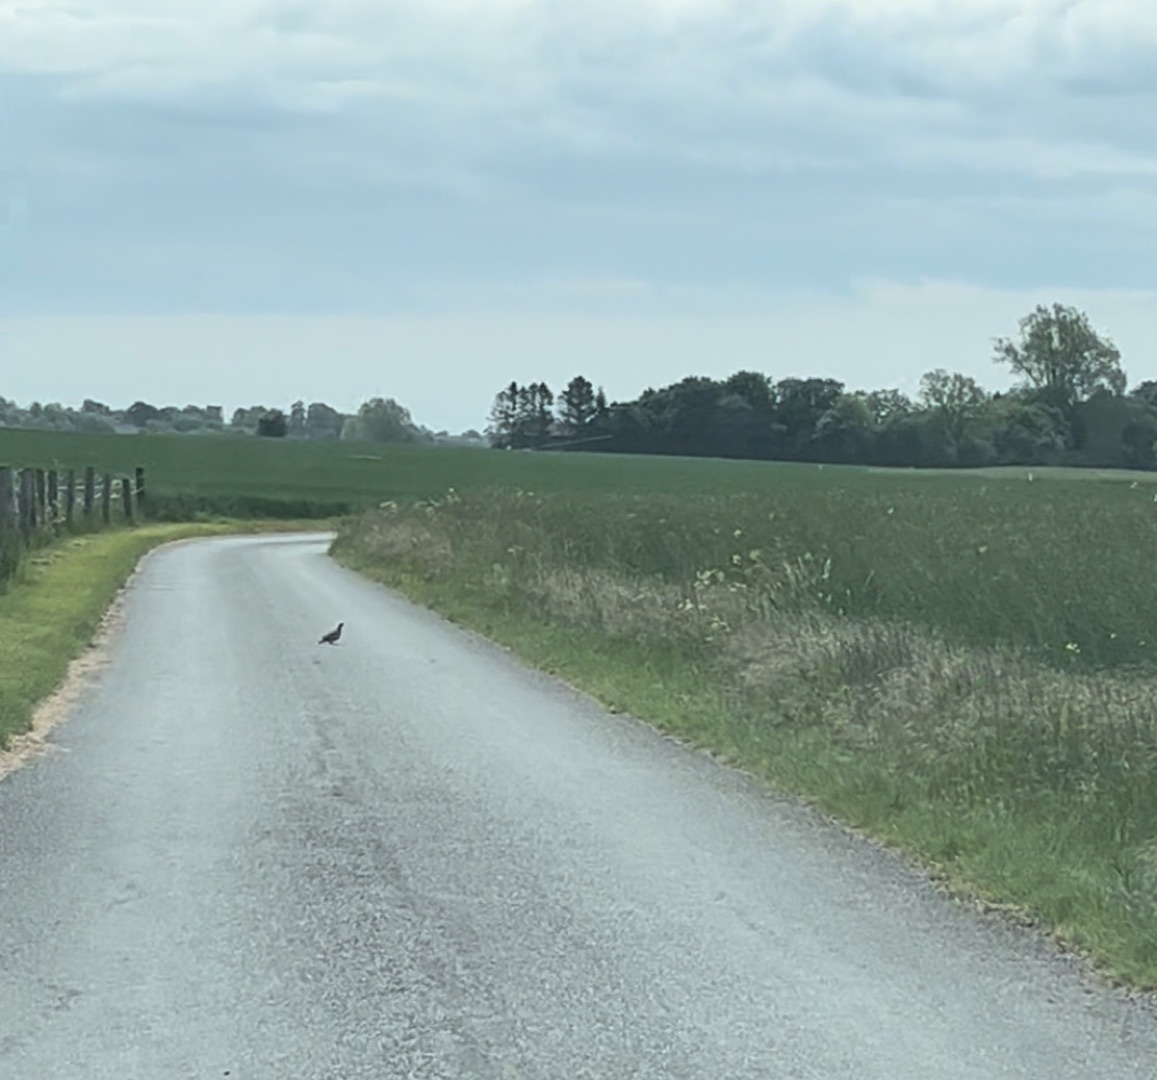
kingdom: Animalia
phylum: Chordata
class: Aves
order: Galliformes
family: Phasianidae
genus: Perdix
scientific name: Perdix perdix
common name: Agerhøne
